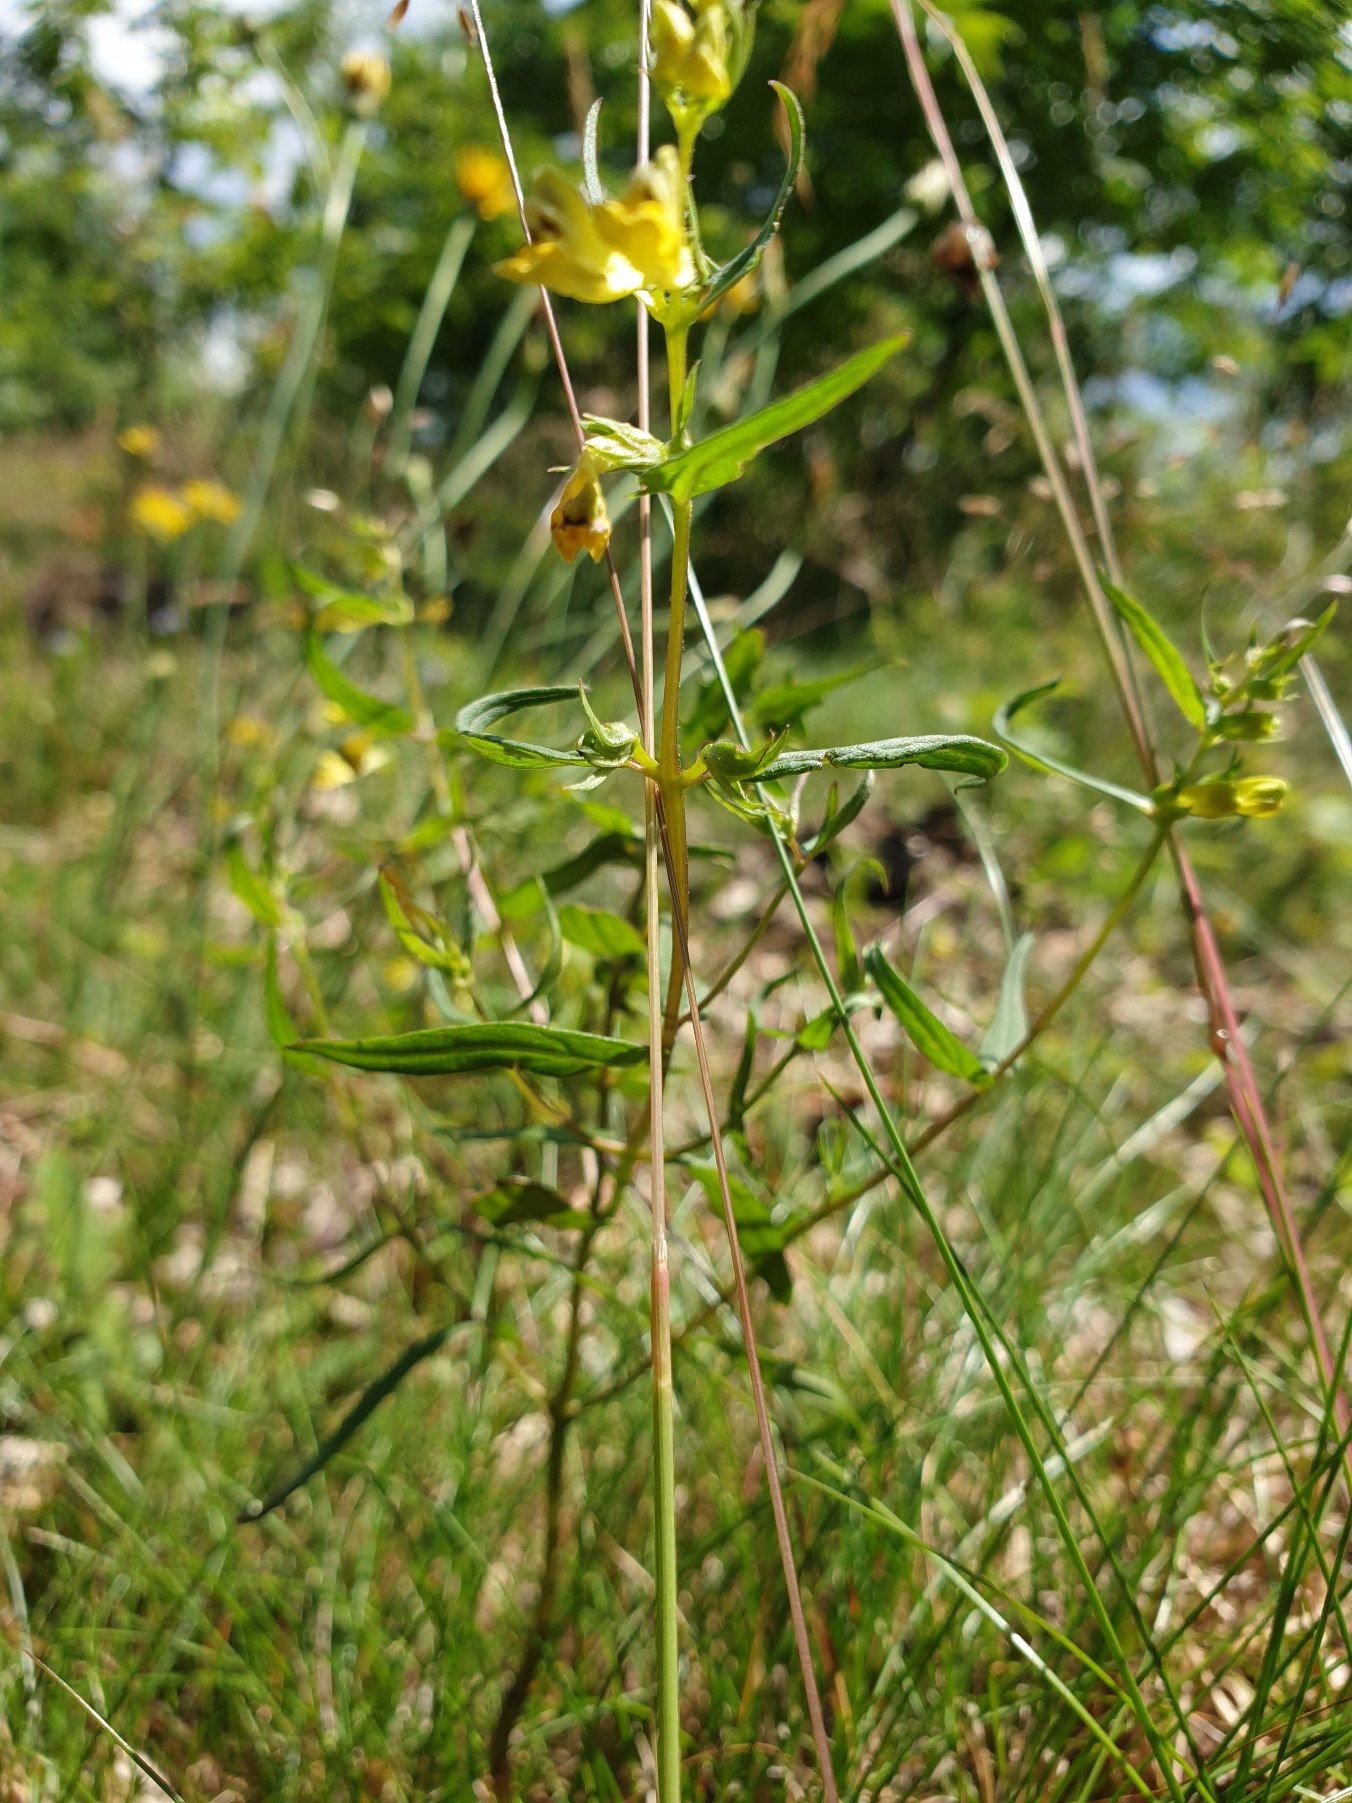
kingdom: Plantae
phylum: Tracheophyta
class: Magnoliopsida
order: Lamiales
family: Orobanchaceae
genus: Melampyrum
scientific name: Melampyrum pratense
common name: Almindelig kohvede
